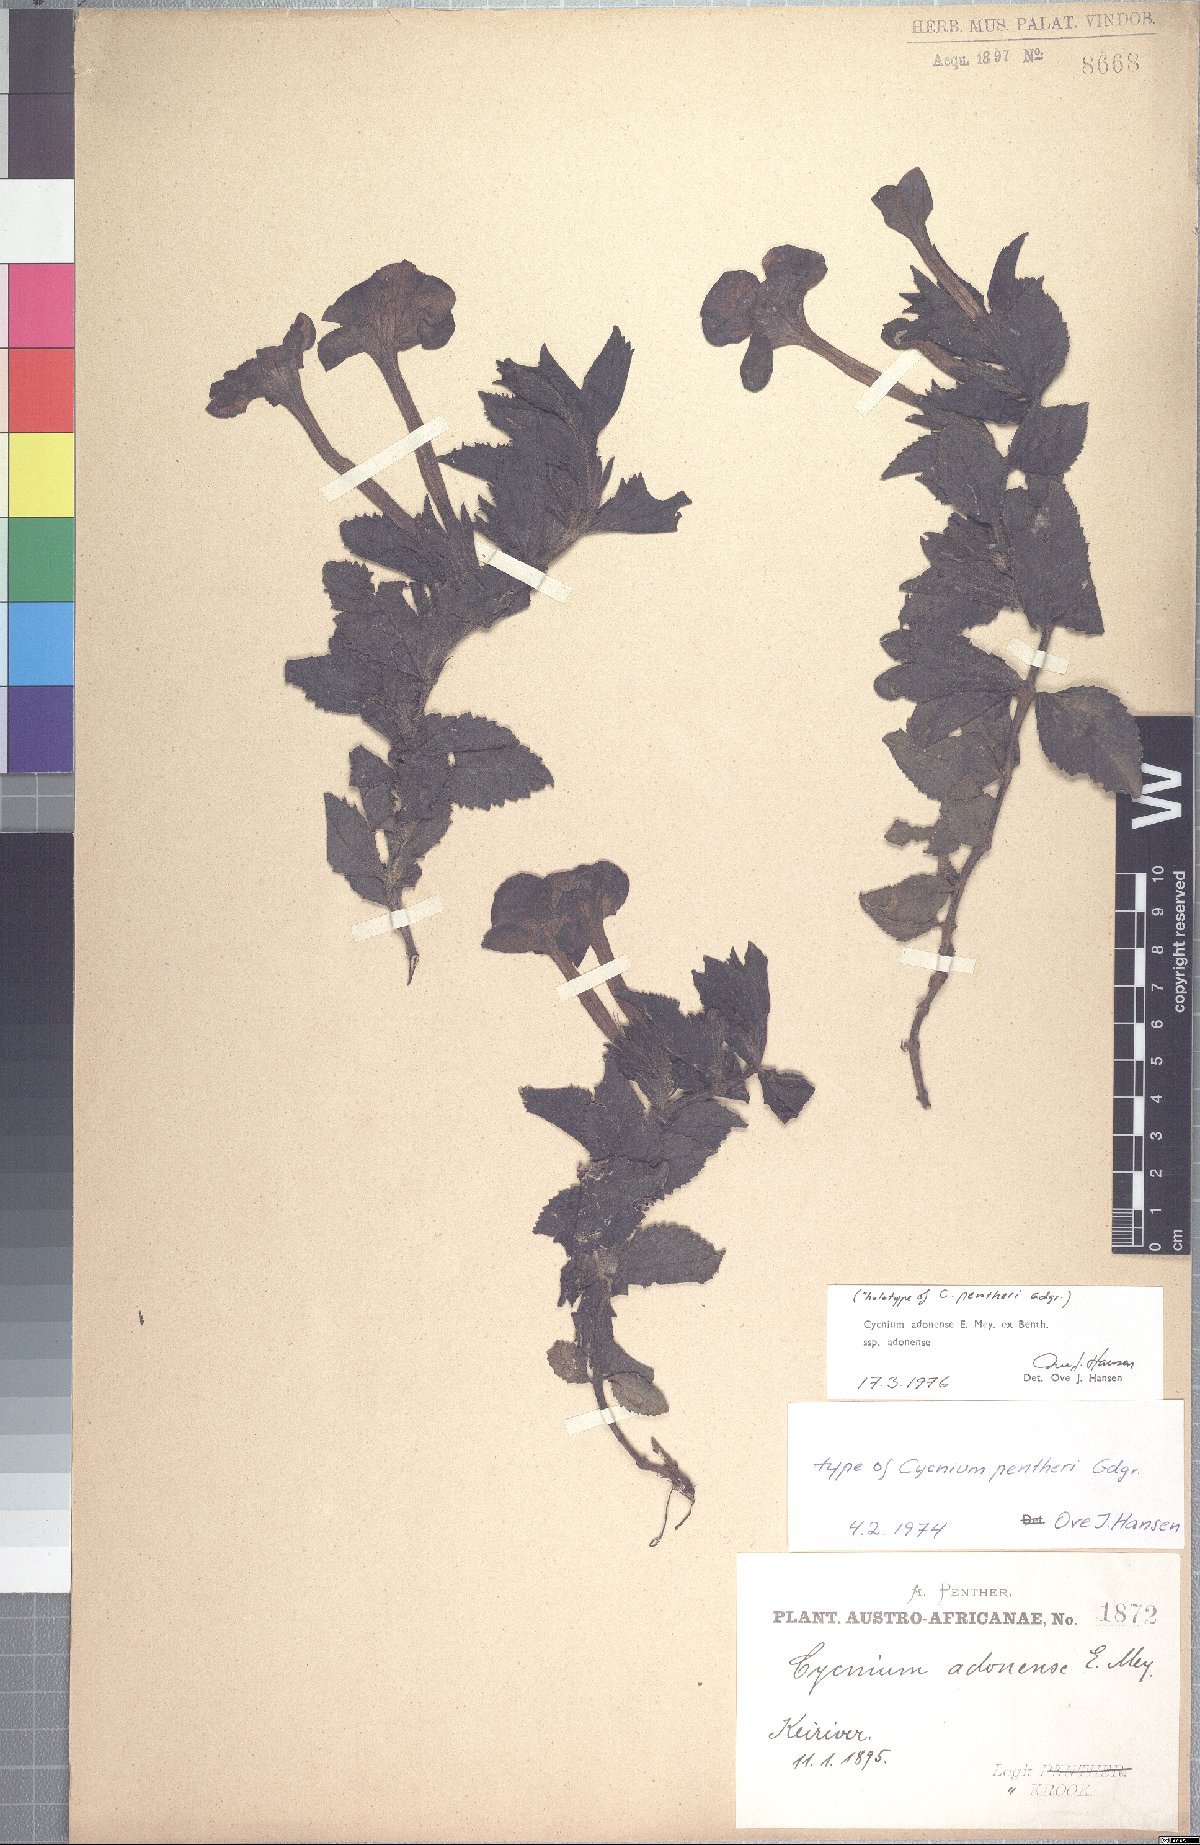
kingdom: Plantae
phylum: Tracheophyta
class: Magnoliopsida
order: Lamiales
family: Orobanchaceae
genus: Cycnium
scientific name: Cycnium adoense
